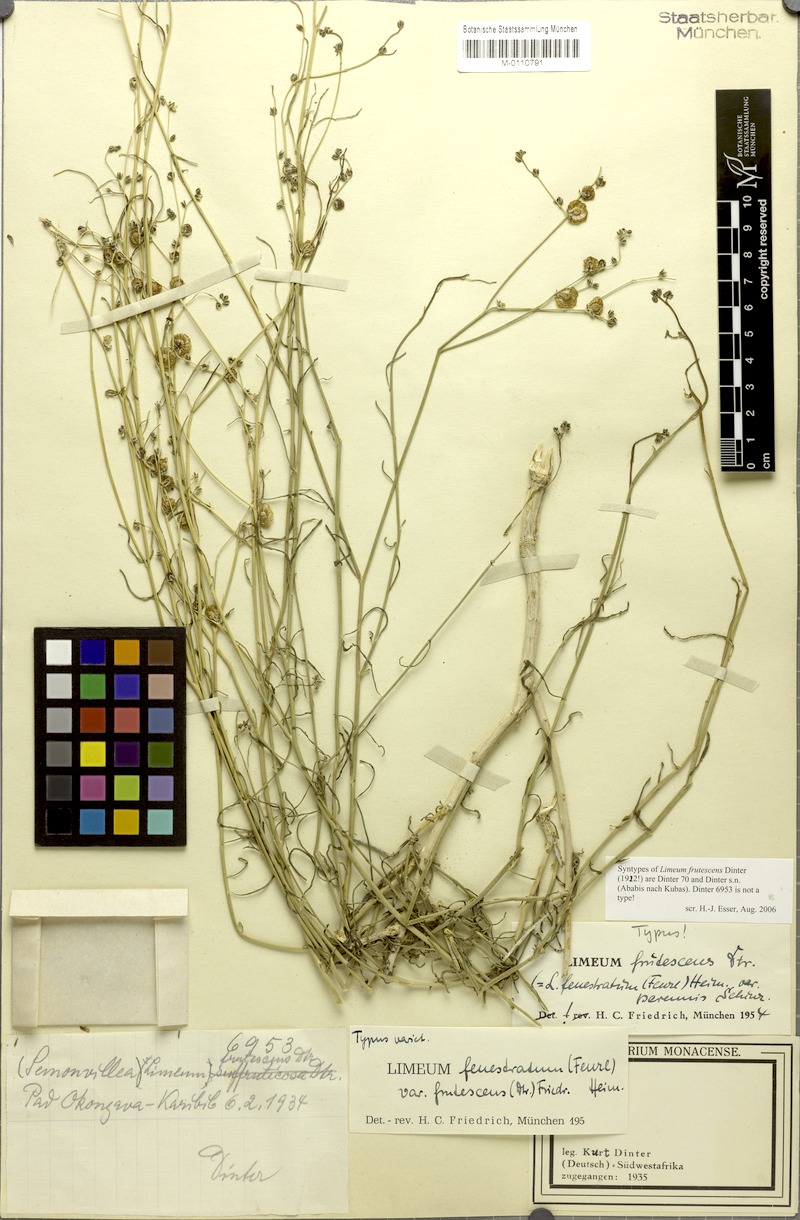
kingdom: Plantae
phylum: Tracheophyta
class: Magnoliopsida
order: Caryophyllales
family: Limeaceae
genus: Limeum
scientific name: Limeum fenestratum
